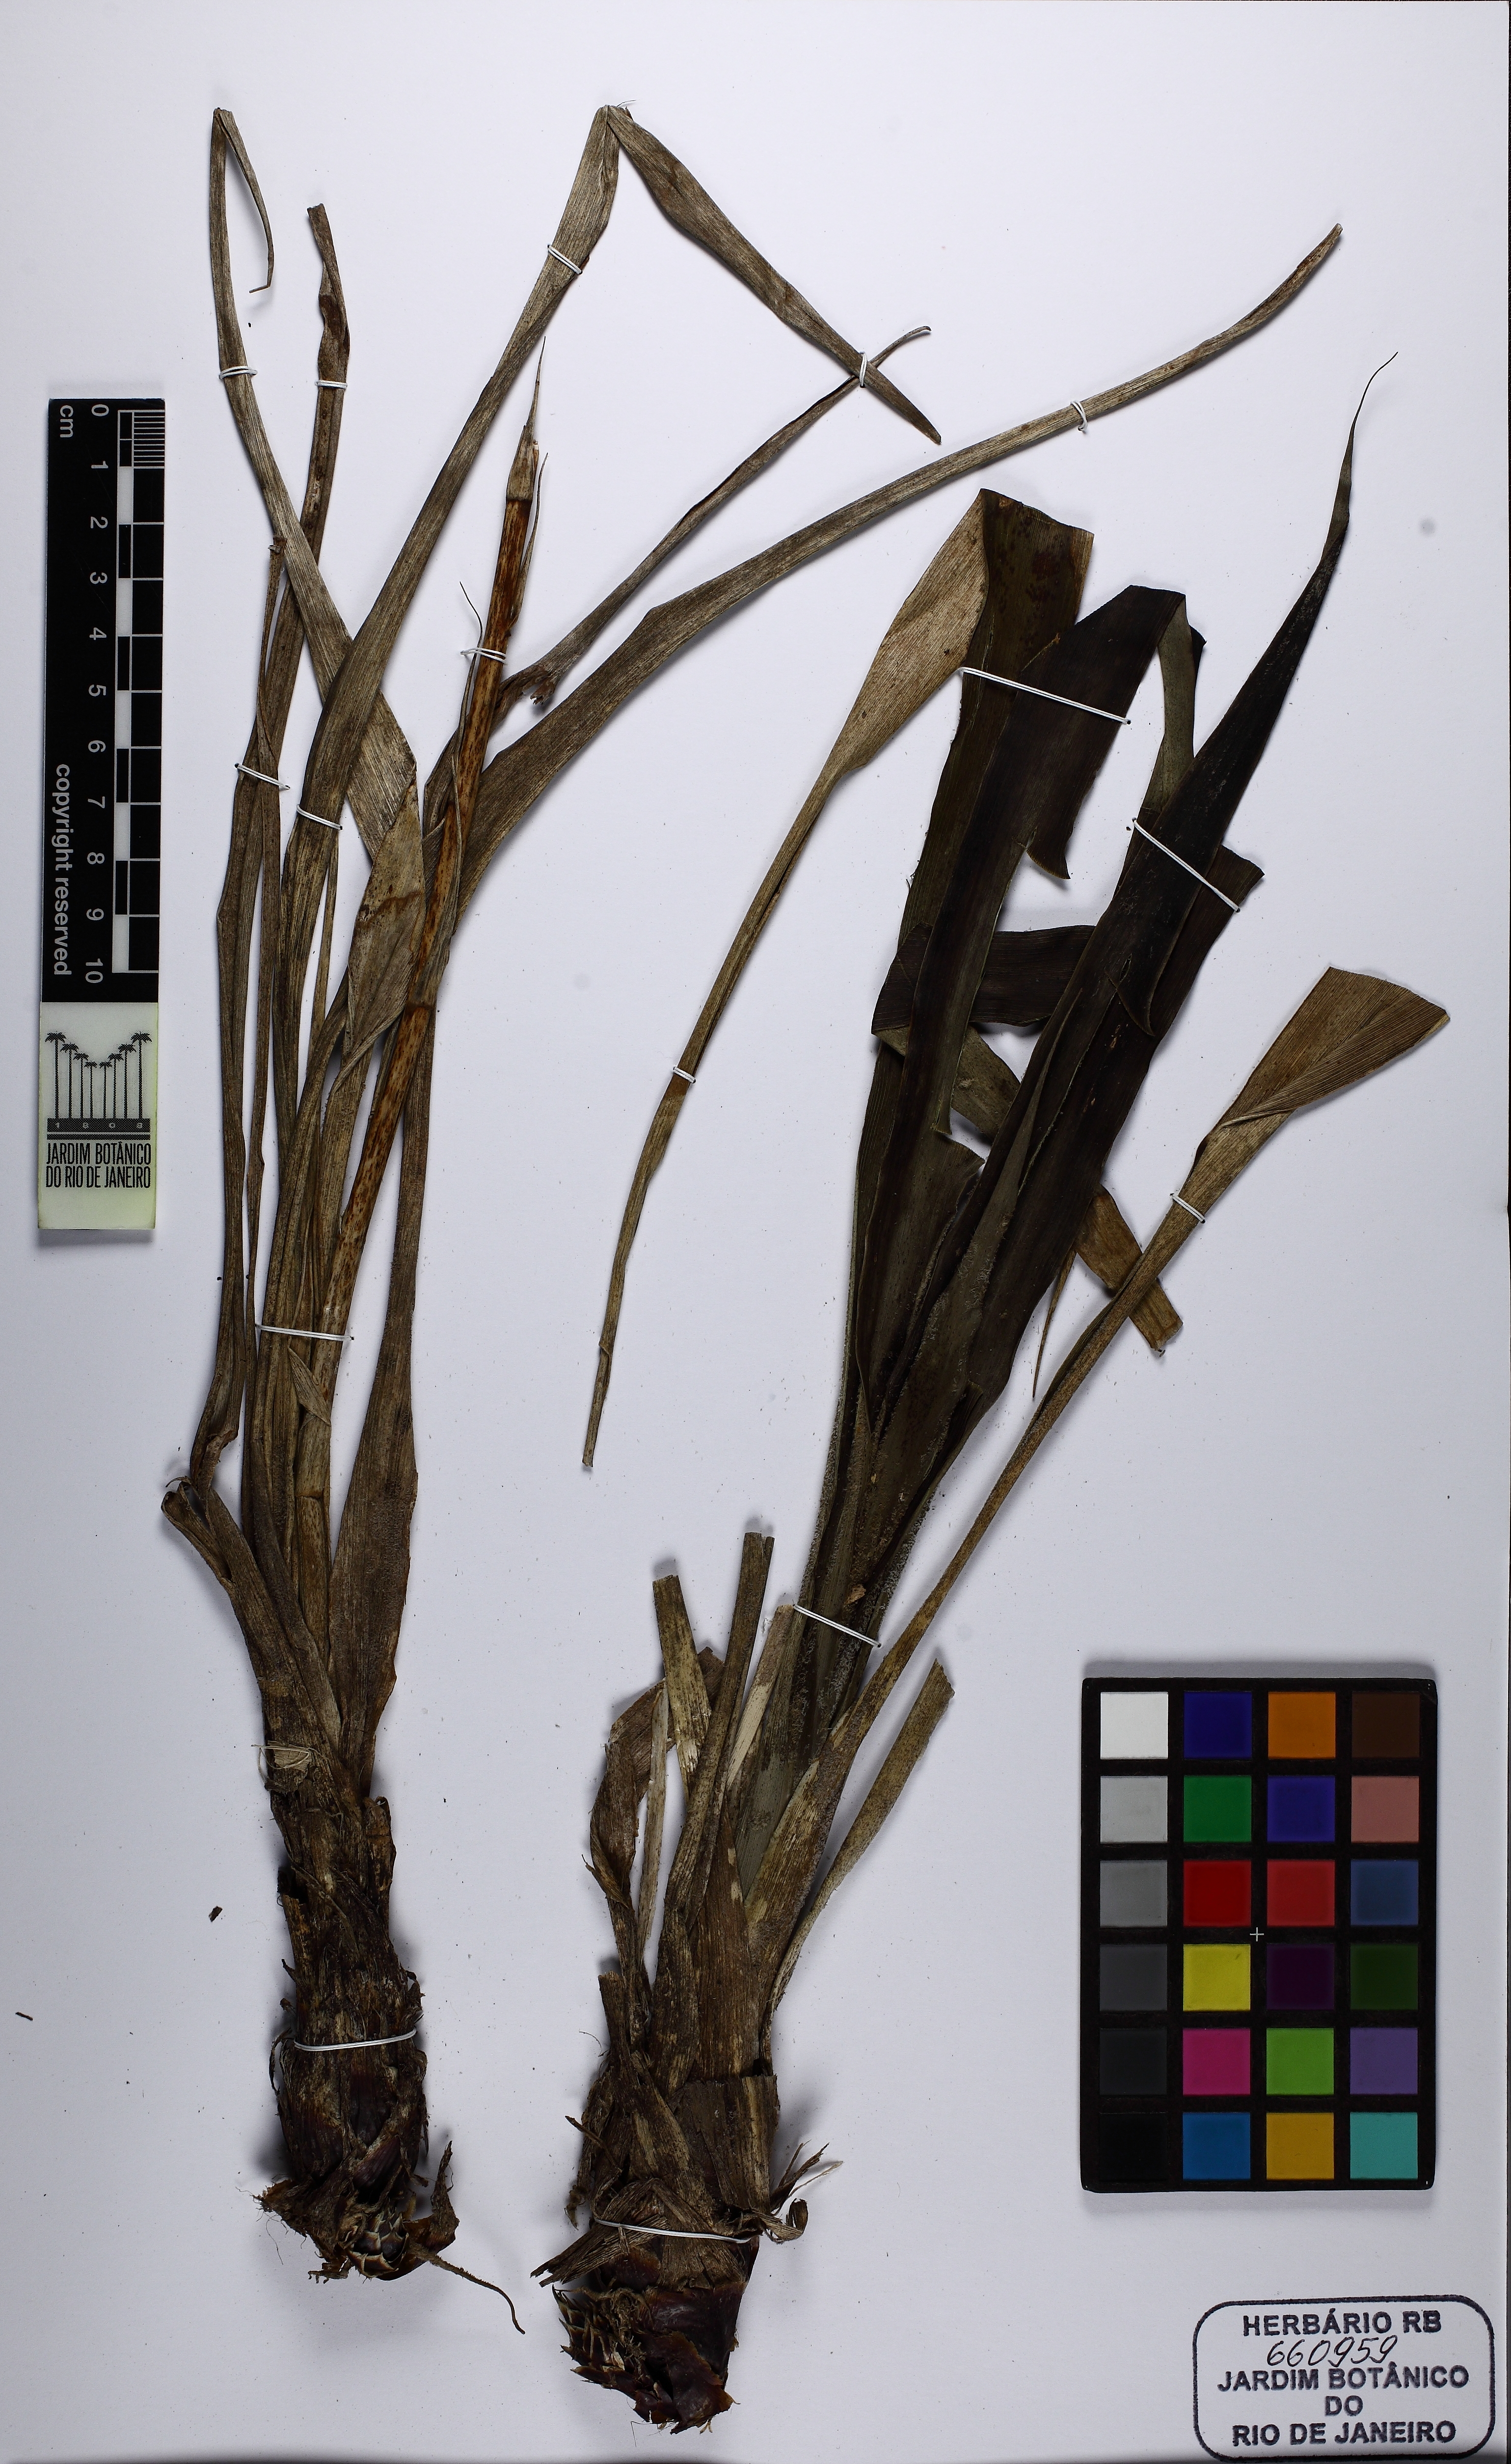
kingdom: Plantae
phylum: Tracheophyta
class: Liliopsida
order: Poales
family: Bromeliaceae
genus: Pitcairnia
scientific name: Pitcairnia flammea
